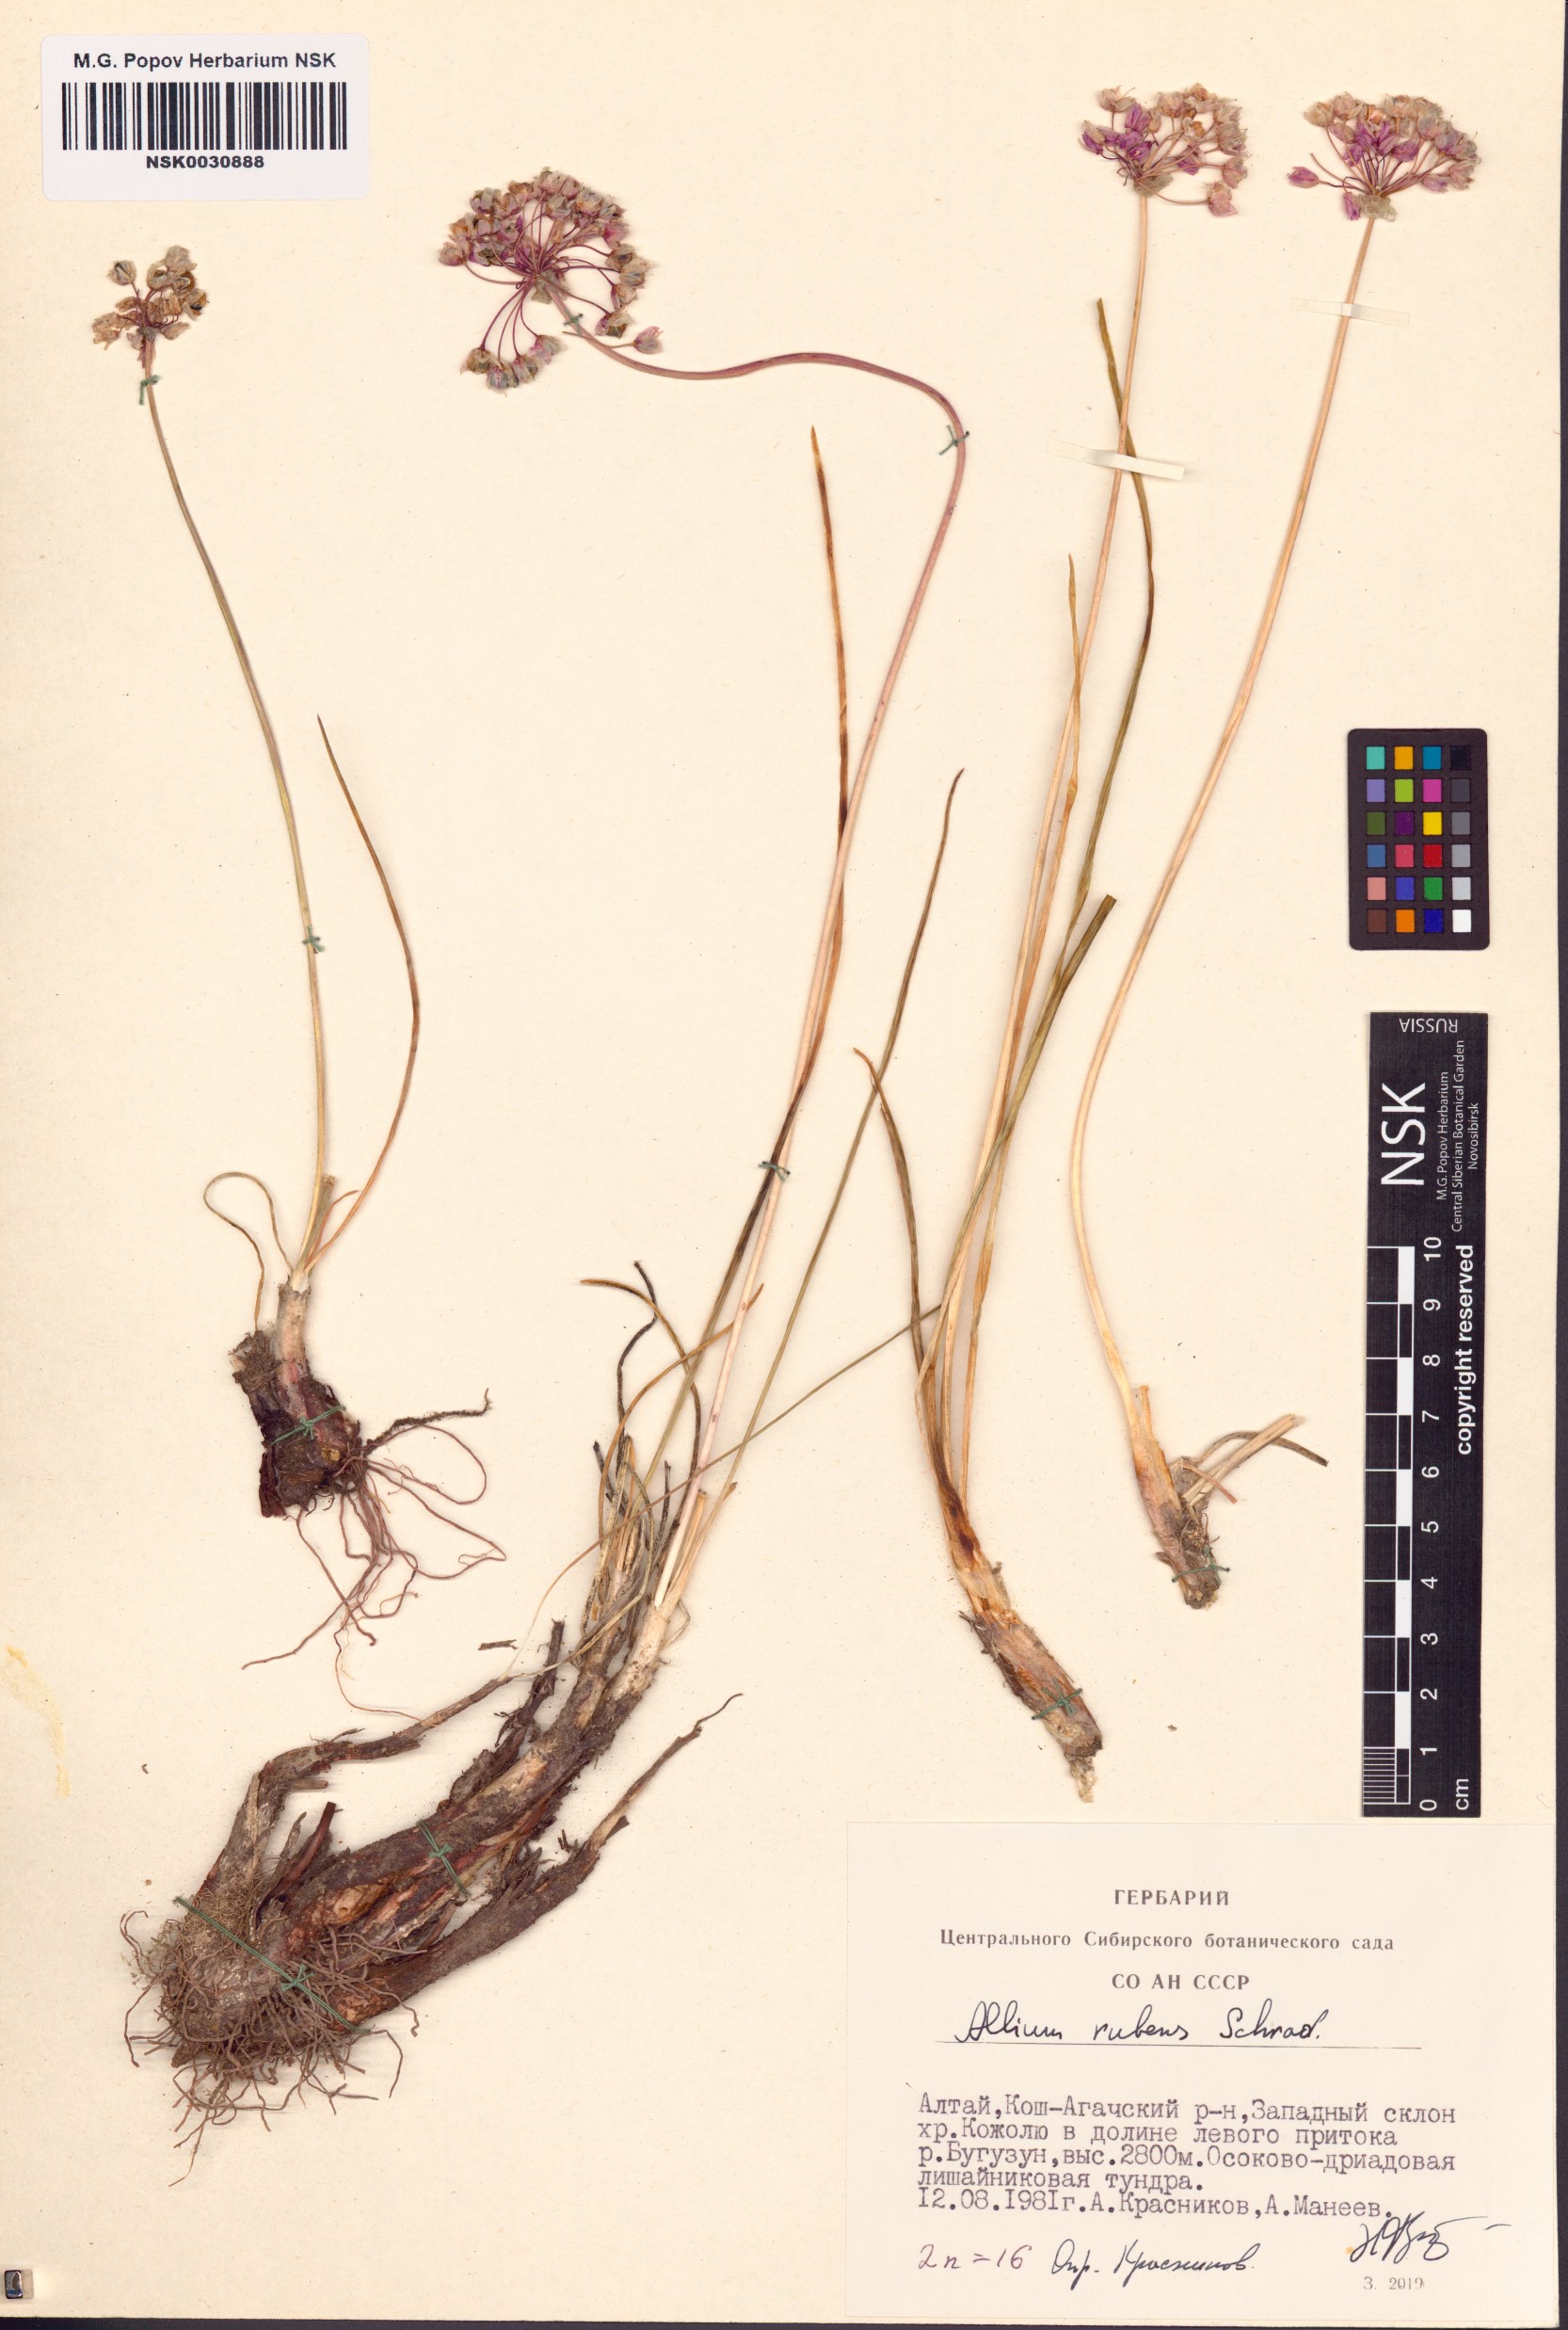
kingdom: Plantae
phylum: Tracheophyta
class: Liliopsida
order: Asparagales
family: Amaryllidaceae
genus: Allium
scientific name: Allium rubens
